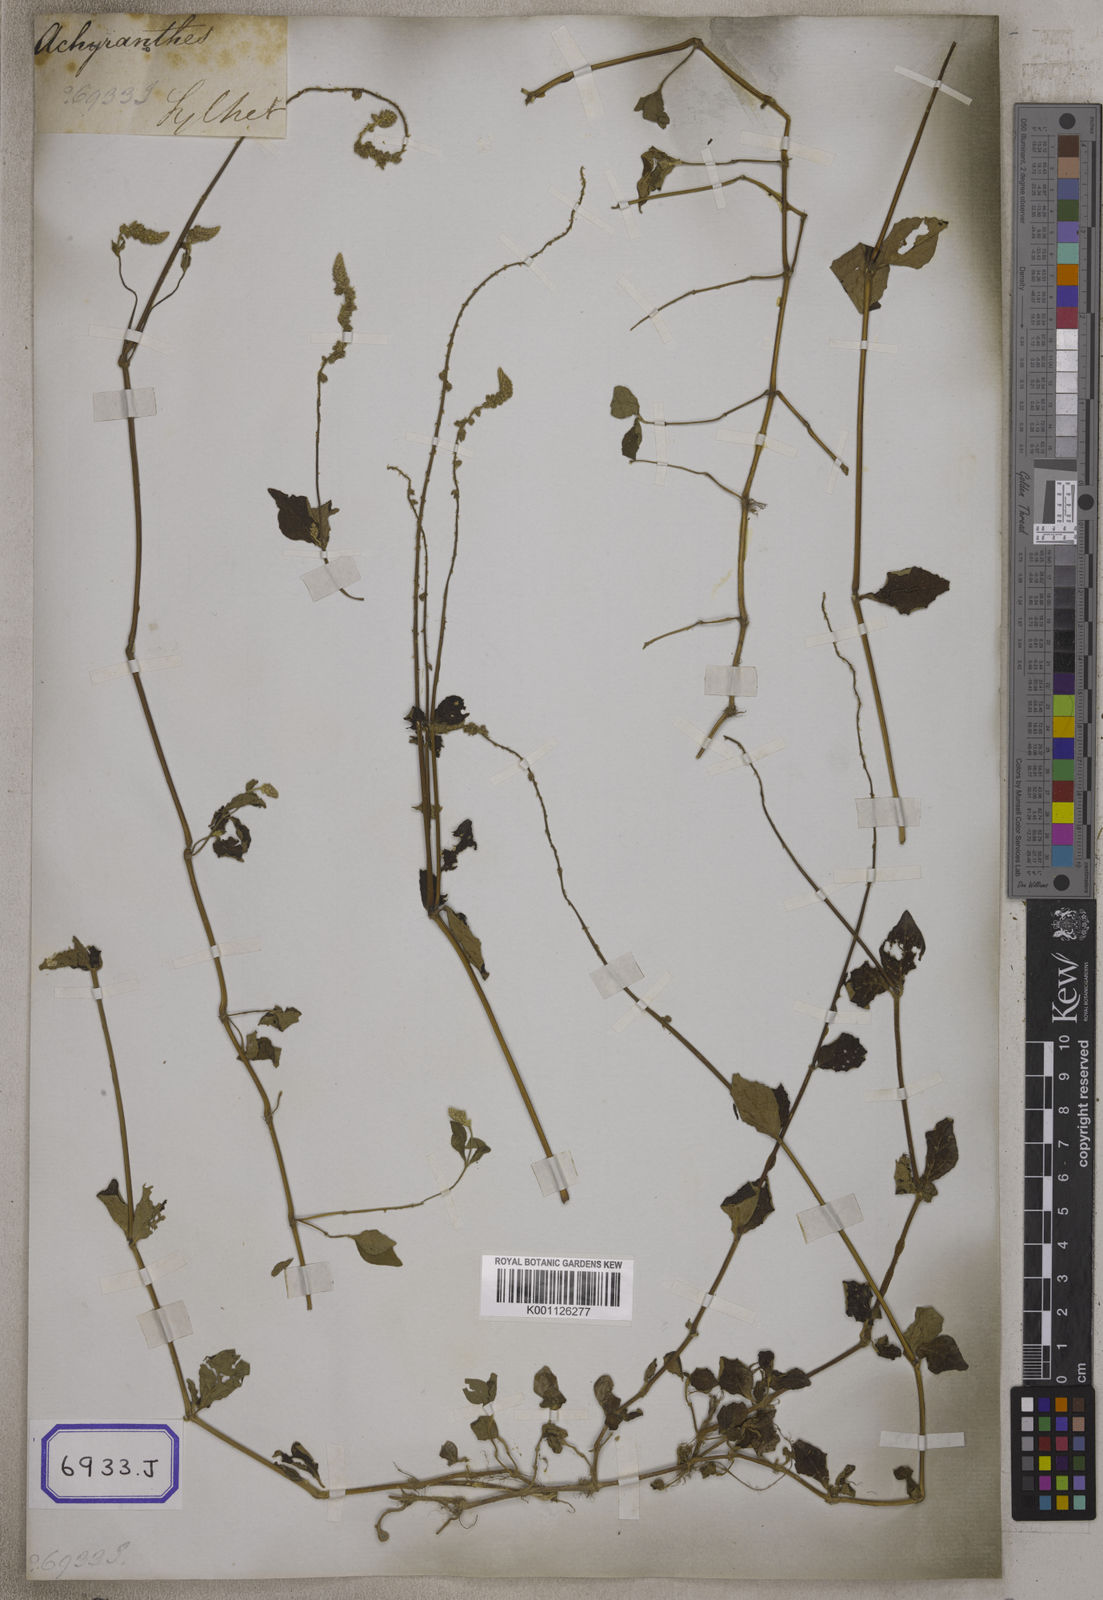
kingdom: Plantae
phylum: Tracheophyta
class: Magnoliopsida
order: Caryophyllales
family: Amaranthaceae
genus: Pupalia
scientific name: Pupalia lappacea
